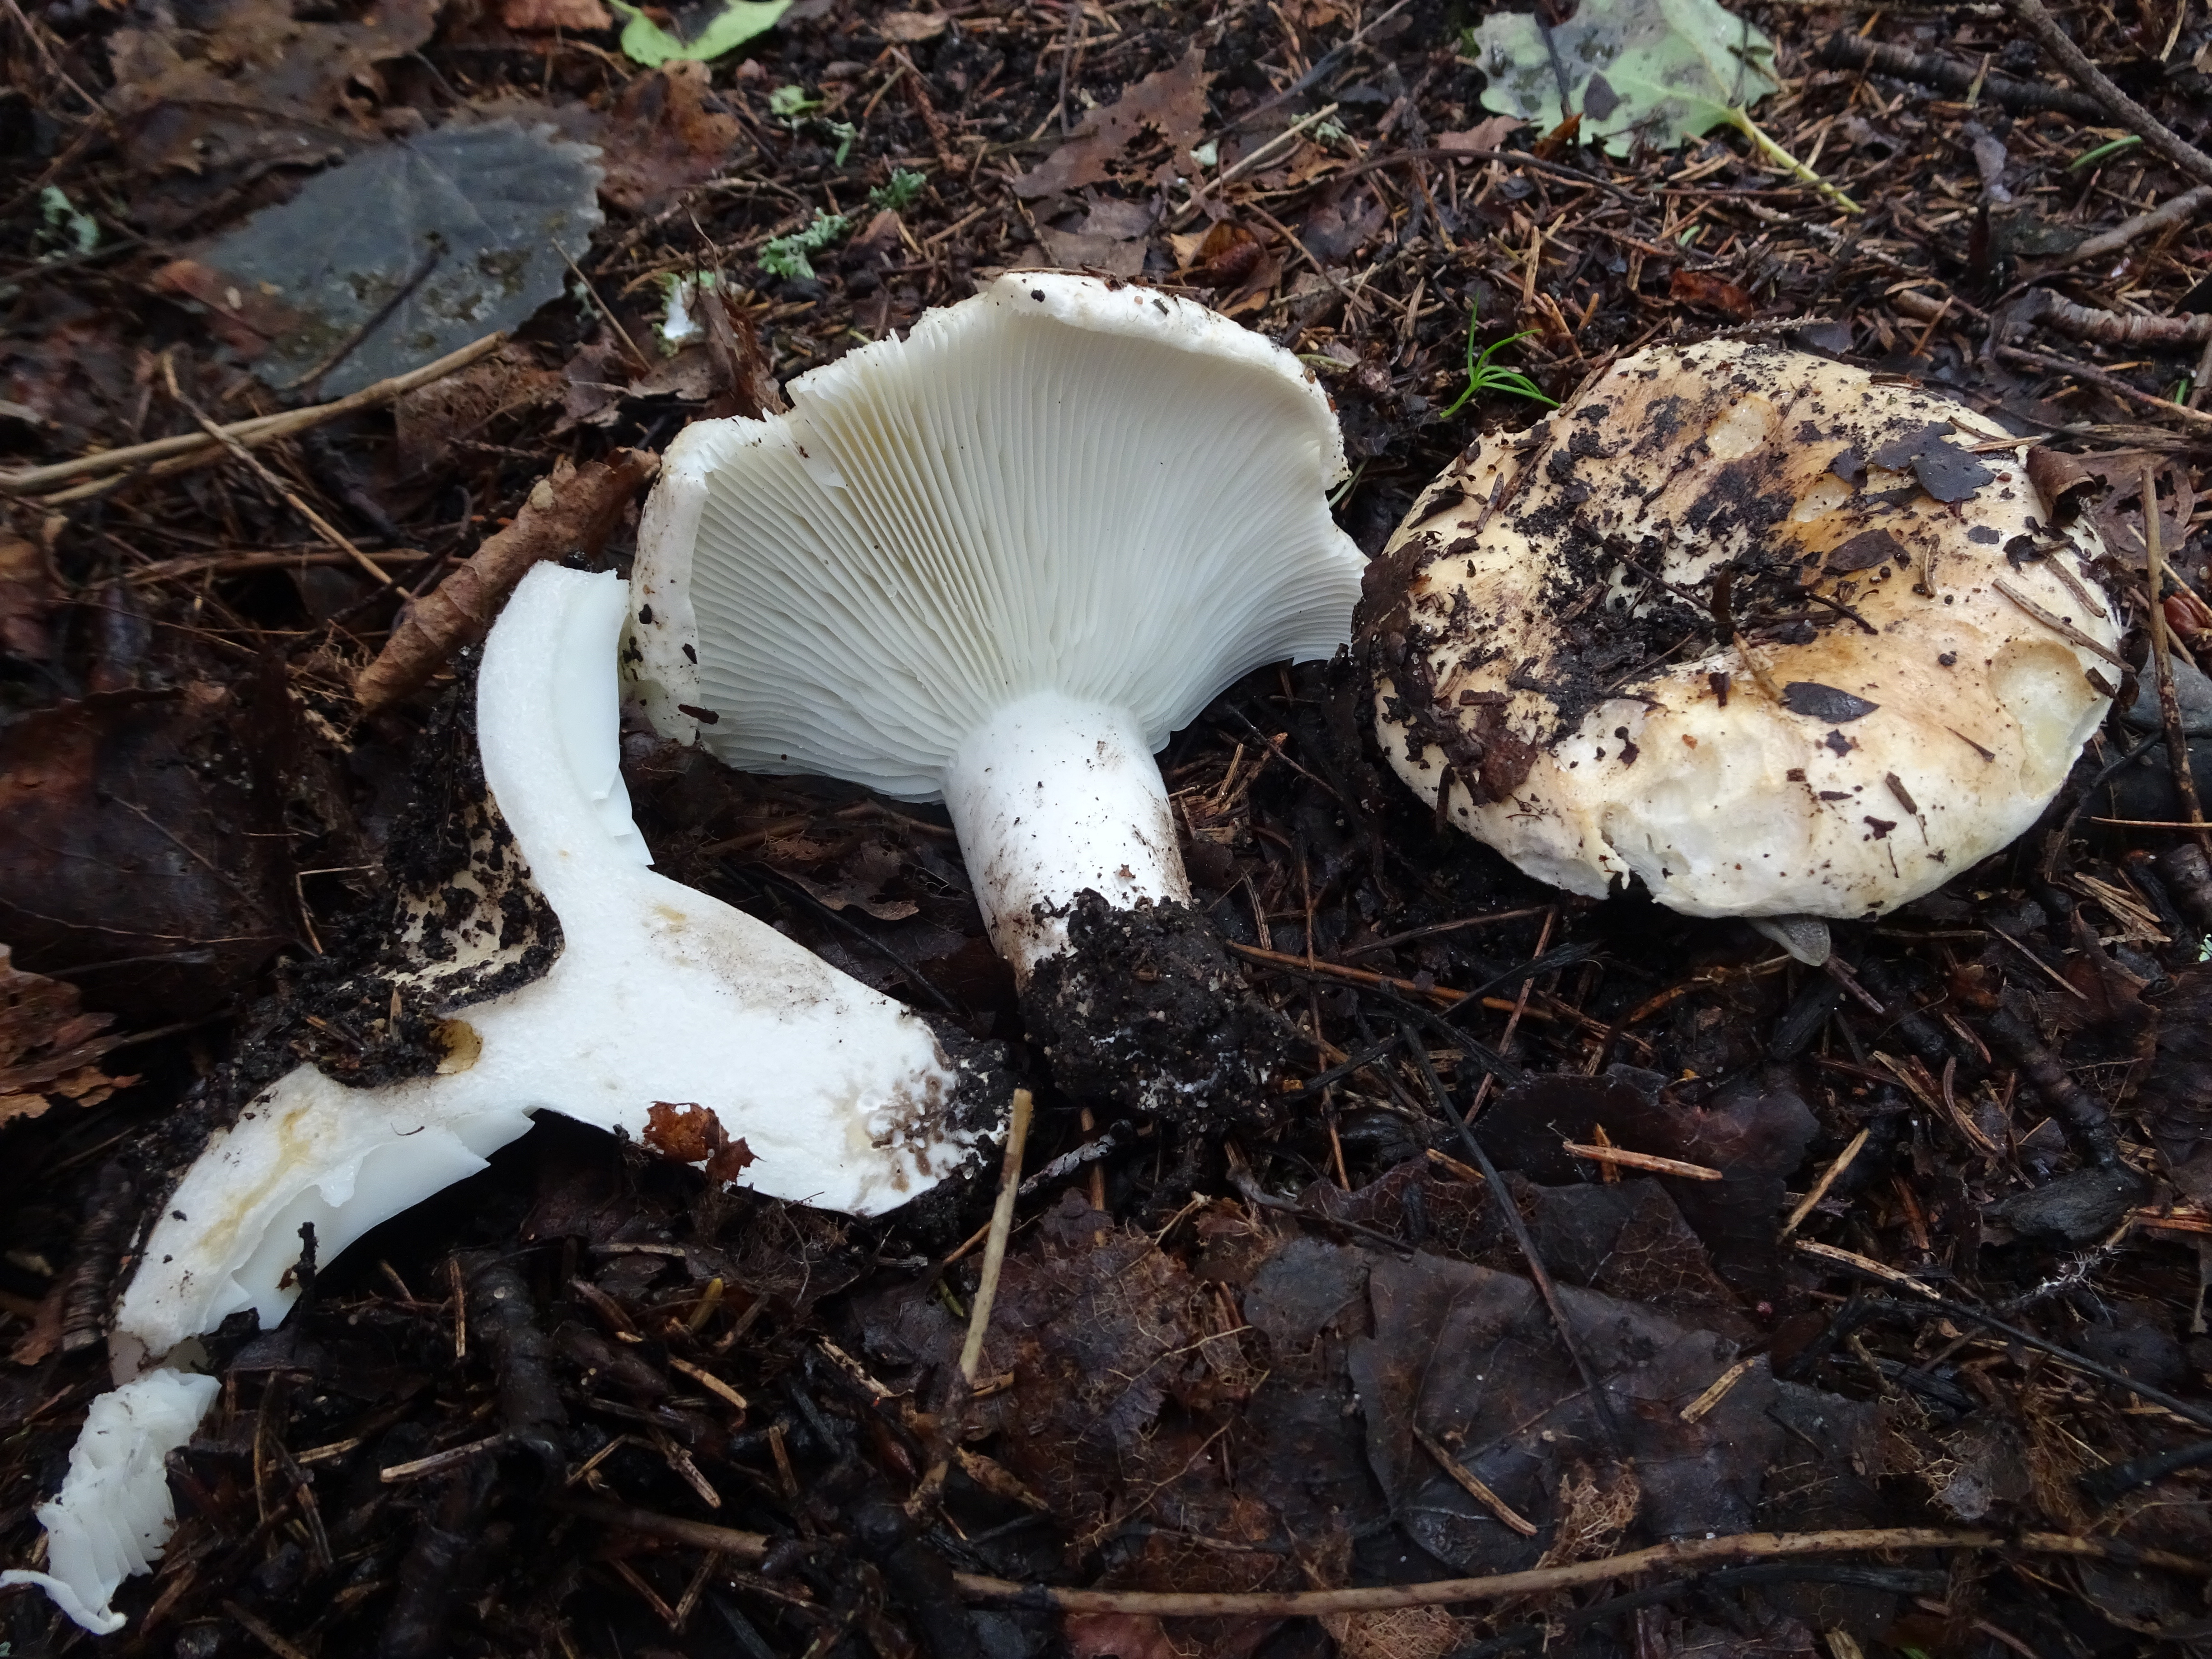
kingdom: Fungi
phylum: Basidiomycota
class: Agaricomycetes
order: Russulales
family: Russulaceae
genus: Russula
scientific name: Russula delica
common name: Milk white brittlegill
